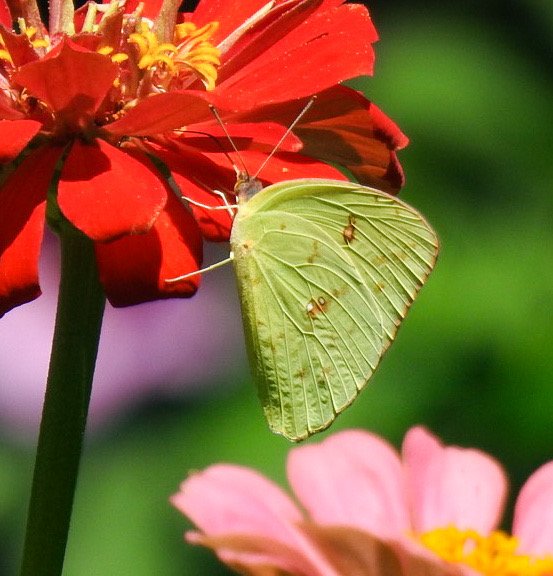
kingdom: Animalia
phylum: Arthropoda
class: Insecta
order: Lepidoptera
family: Pieridae
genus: Phoebis
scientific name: Phoebis sennae
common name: Cloudless Sulphur
